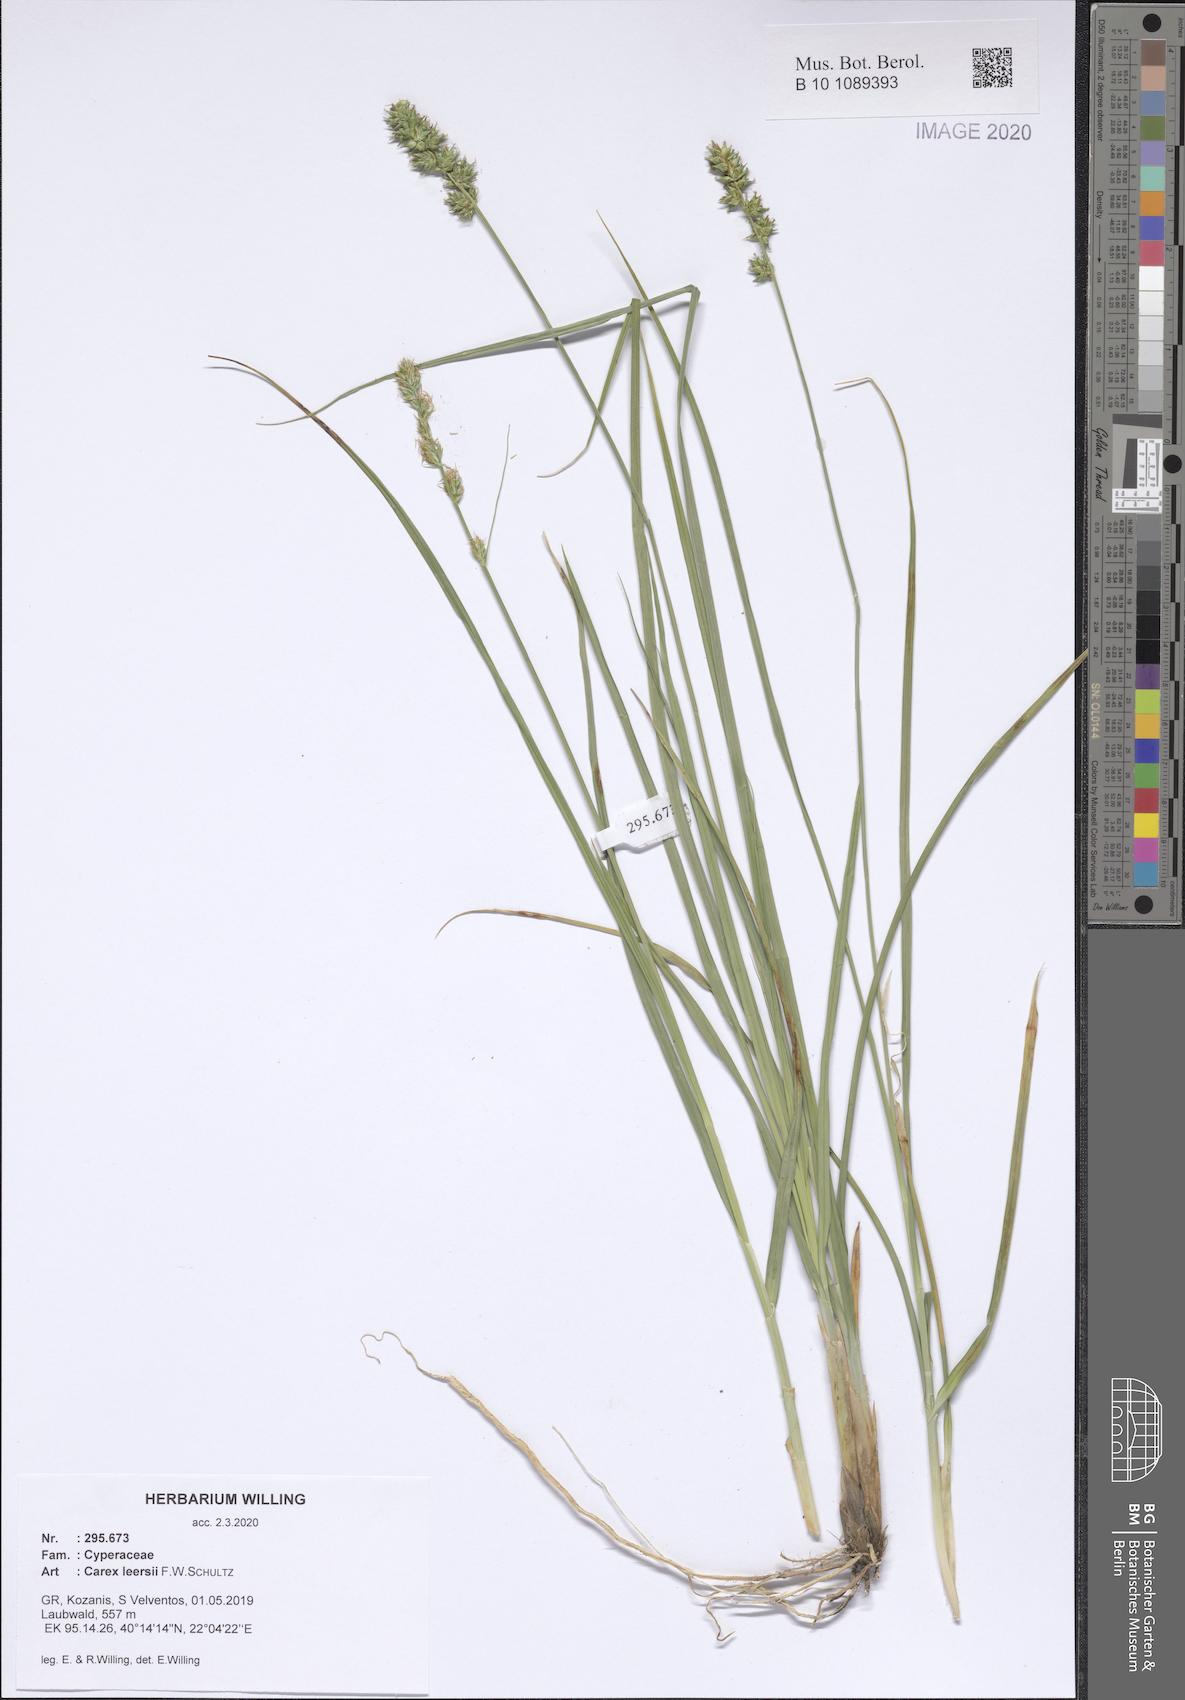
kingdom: Plantae
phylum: Tracheophyta
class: Liliopsida
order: Poales
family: Cyperaceae
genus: Carex
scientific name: Carex leersii
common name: Leers' sedge
